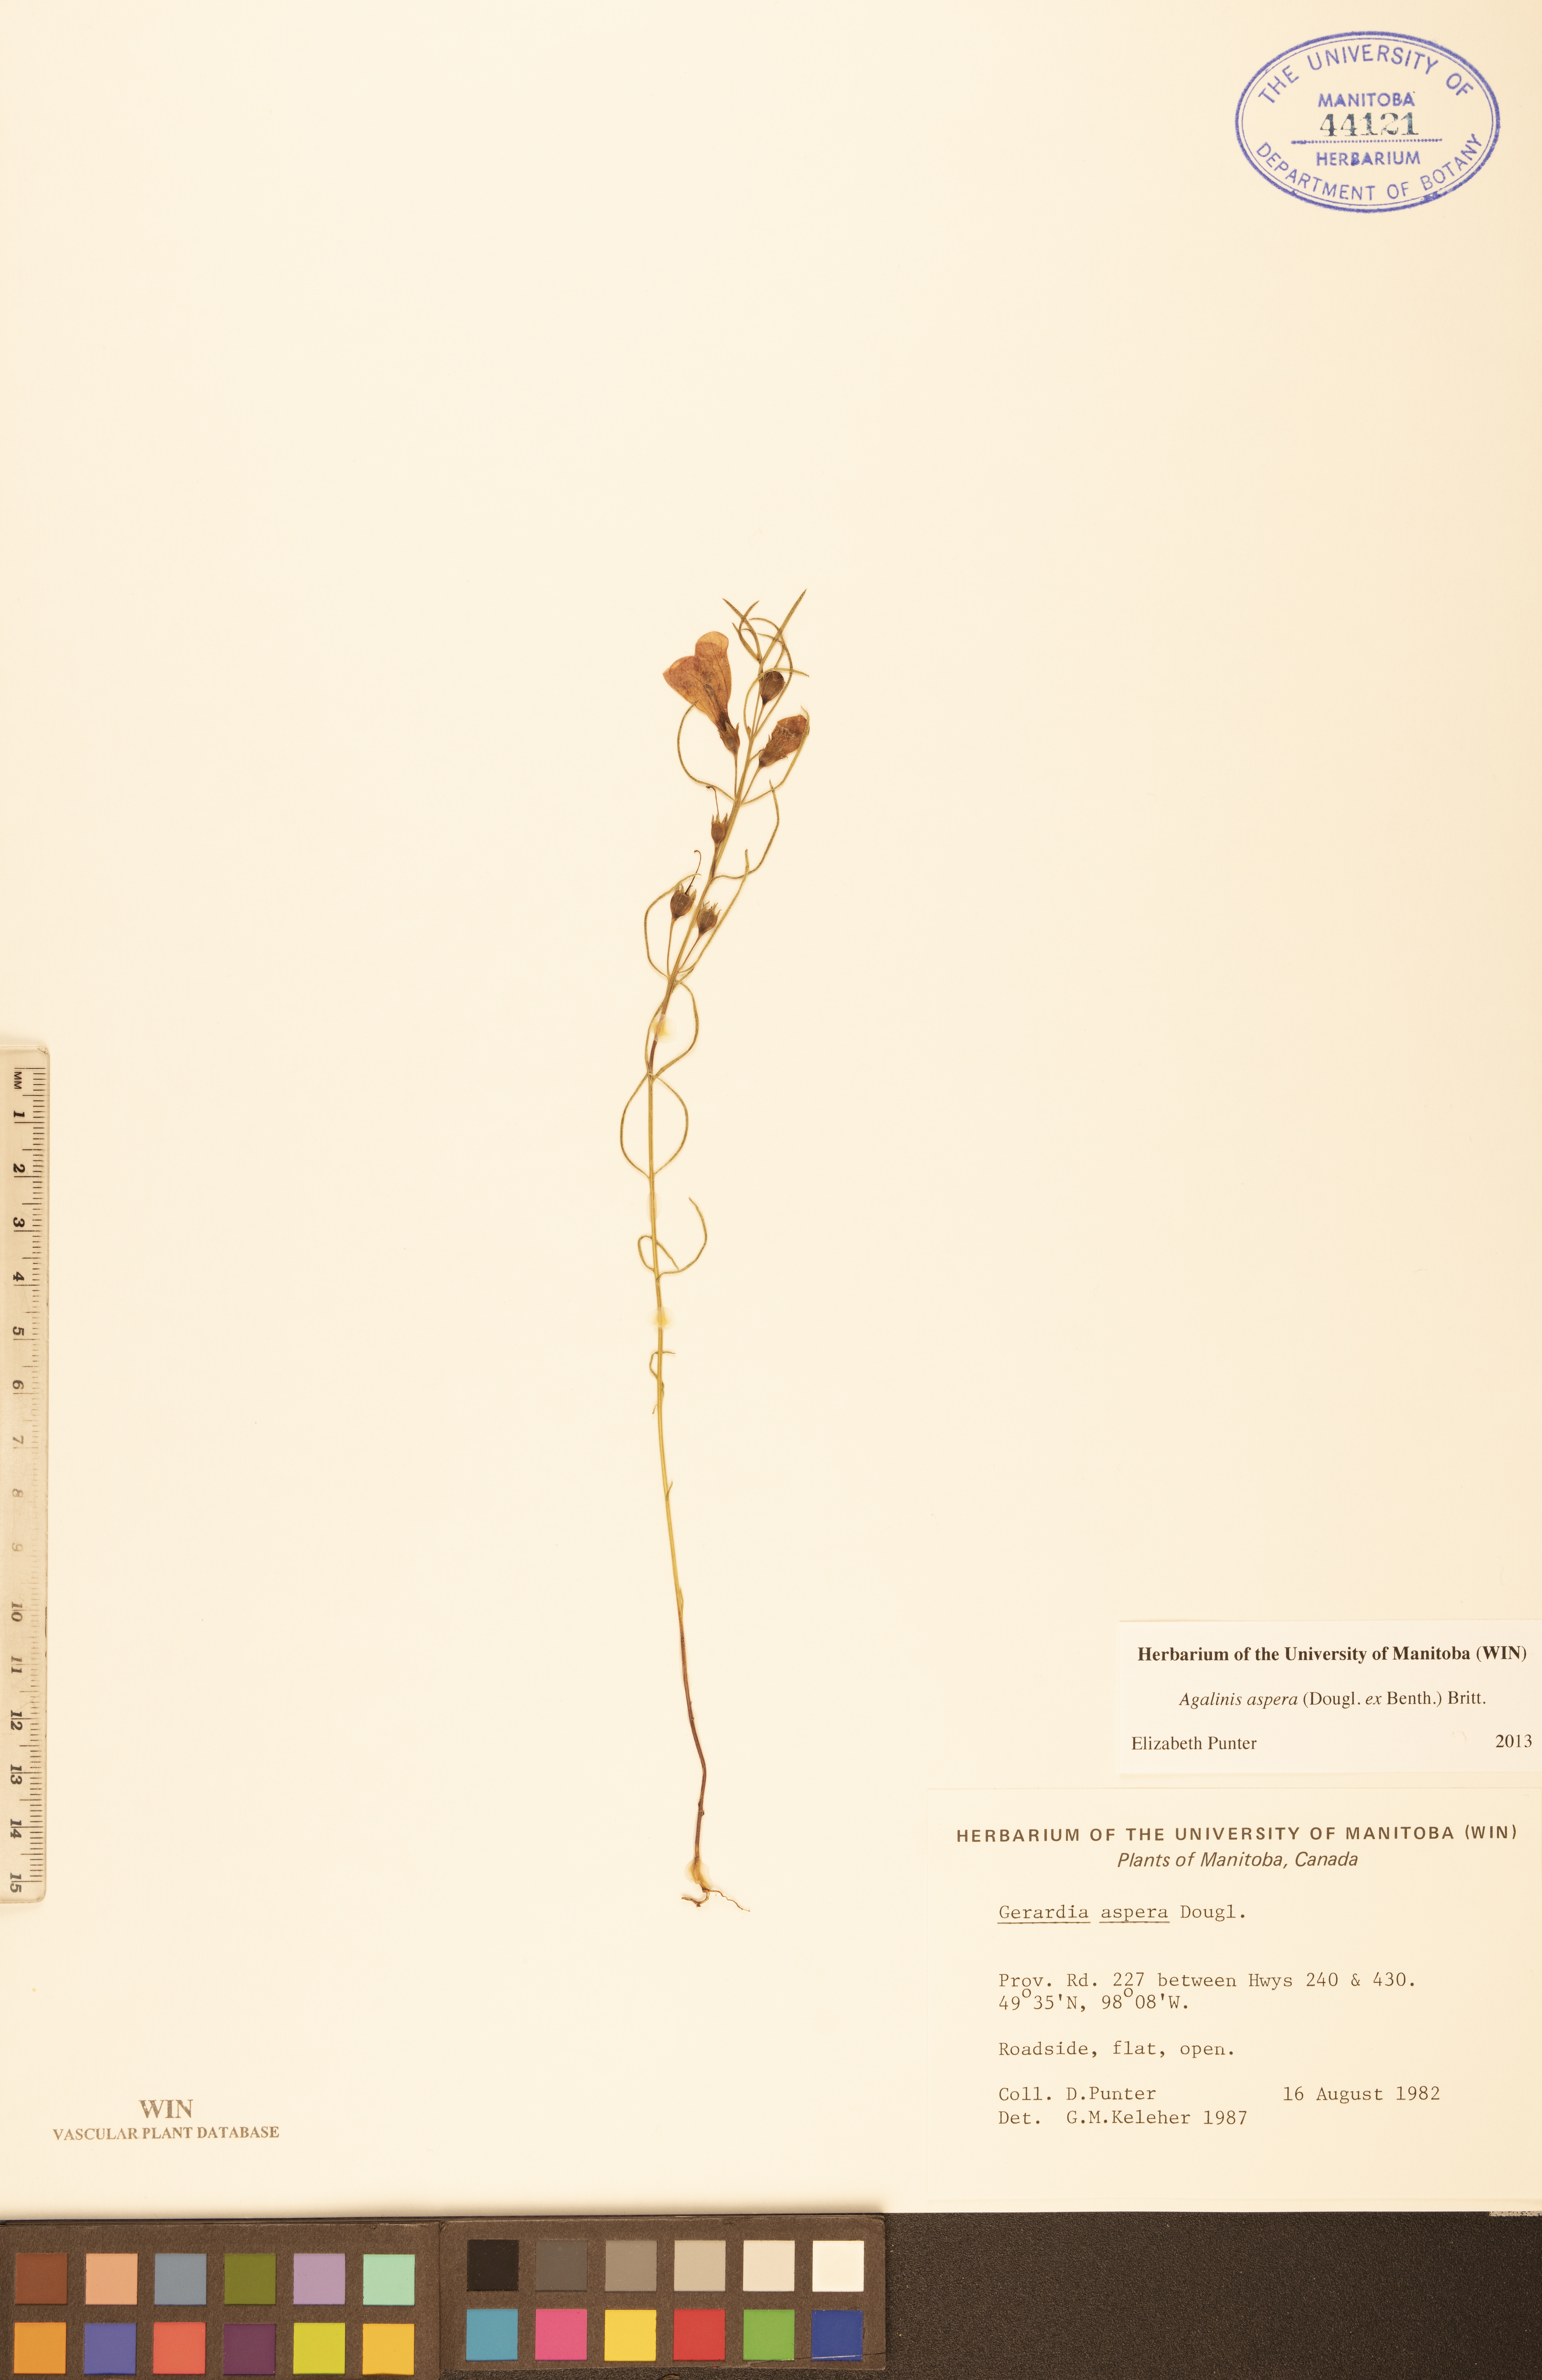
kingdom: Plantae
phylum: Tracheophyta
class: Magnoliopsida
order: Lamiales
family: Orobanchaceae
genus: Agalinis
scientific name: Agalinis aspera
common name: Rough agalinis
